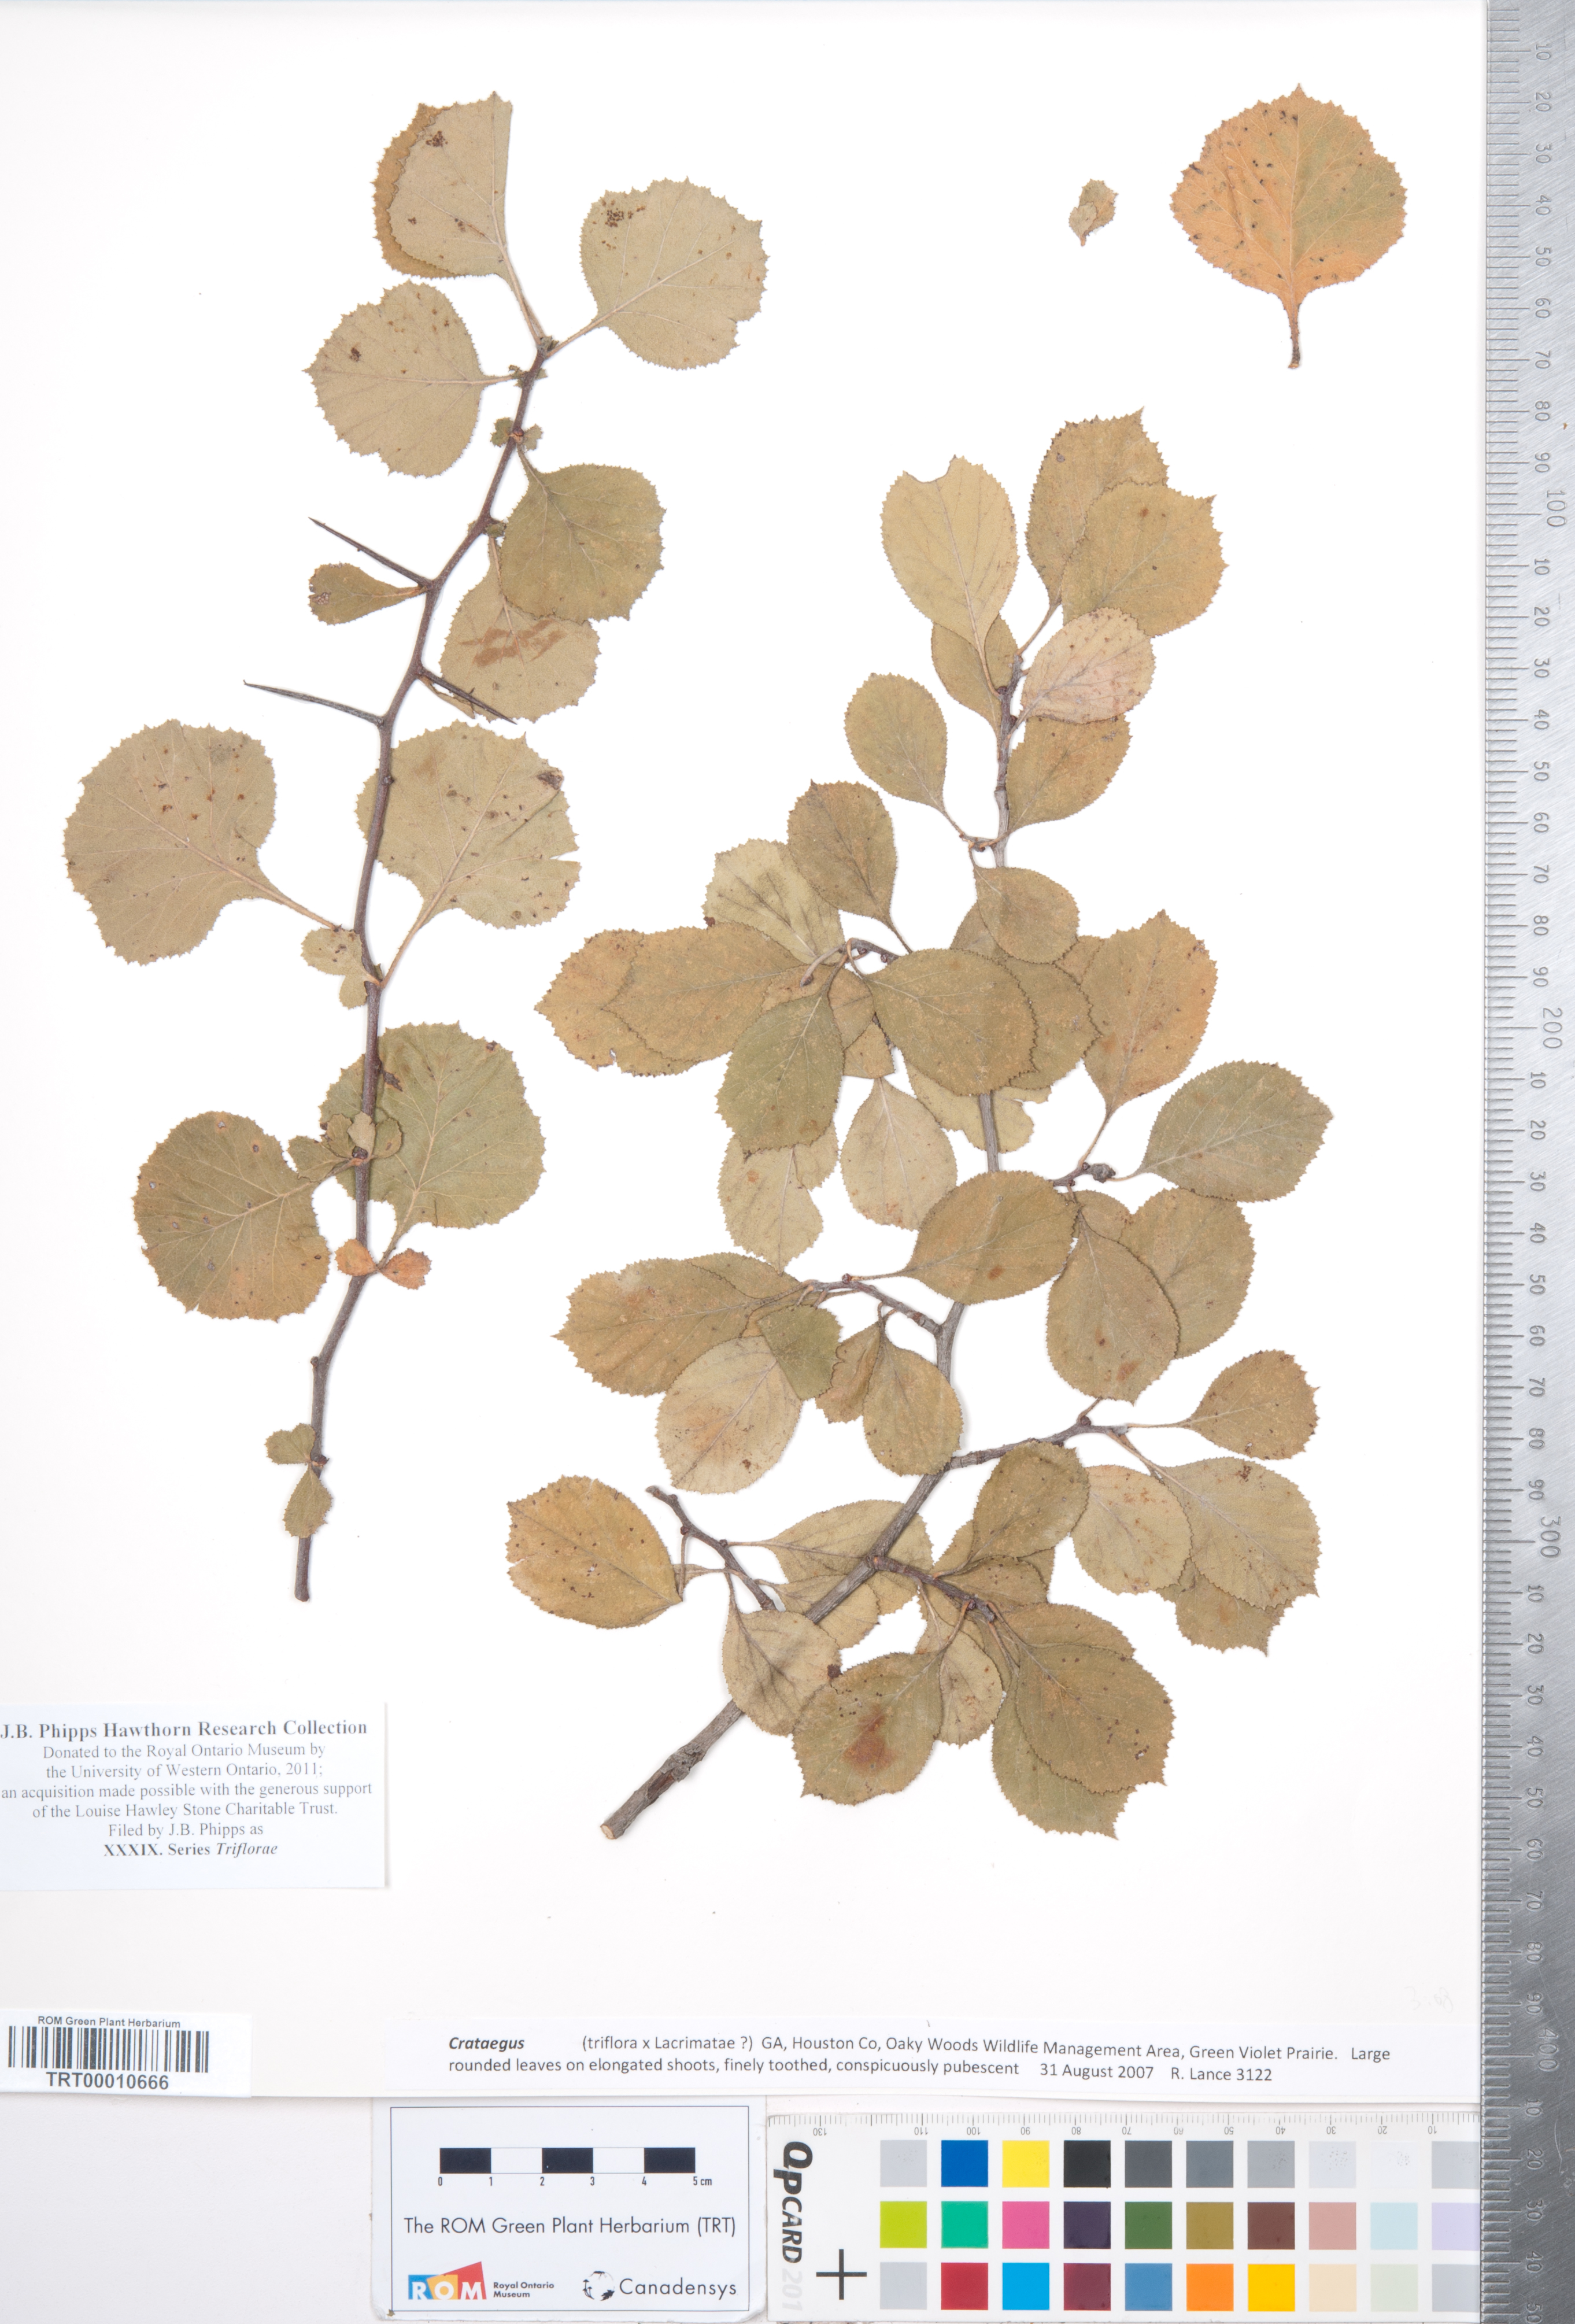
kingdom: Plantae
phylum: Tracheophyta
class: Magnoliopsida
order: Rosales
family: Rosaceae
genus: Crataegus
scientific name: Crataegus
